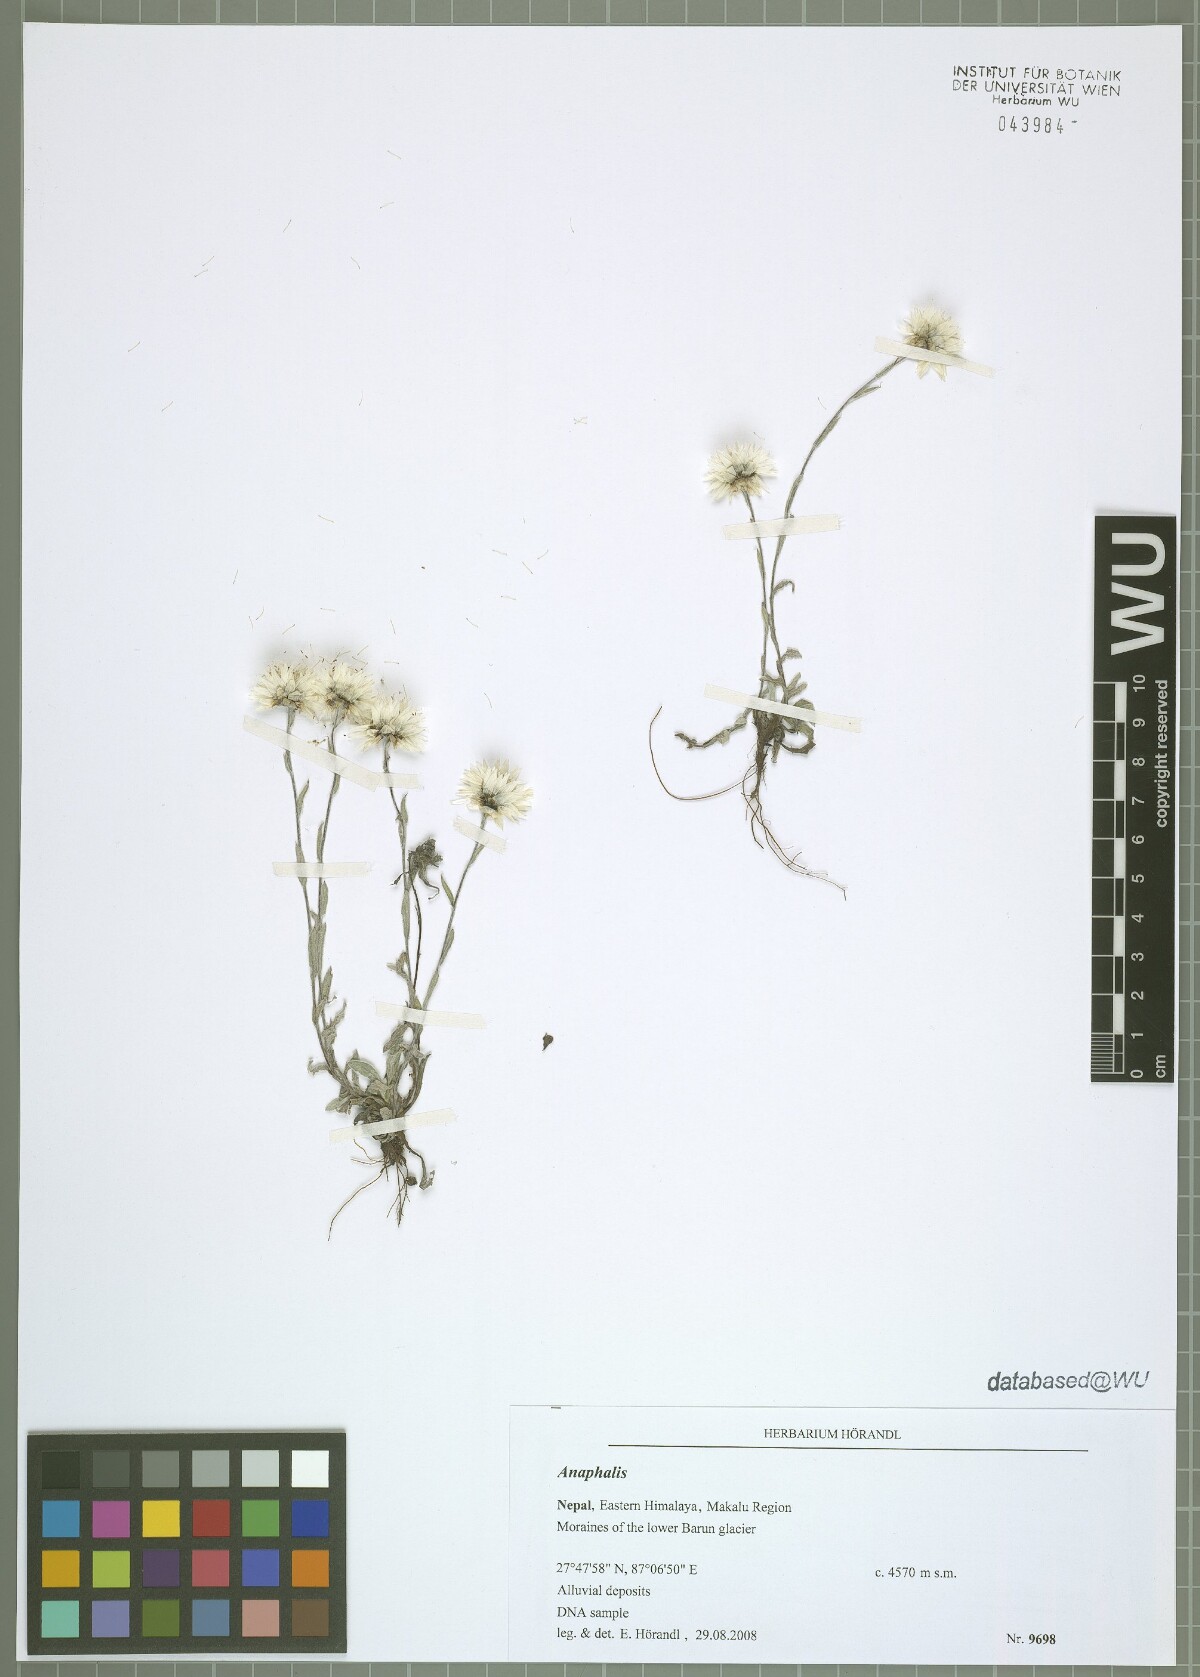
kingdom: Plantae
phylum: Tracheophyta
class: Magnoliopsida
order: Asterales
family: Asteraceae
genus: Anaphalis
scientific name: Anaphalis
